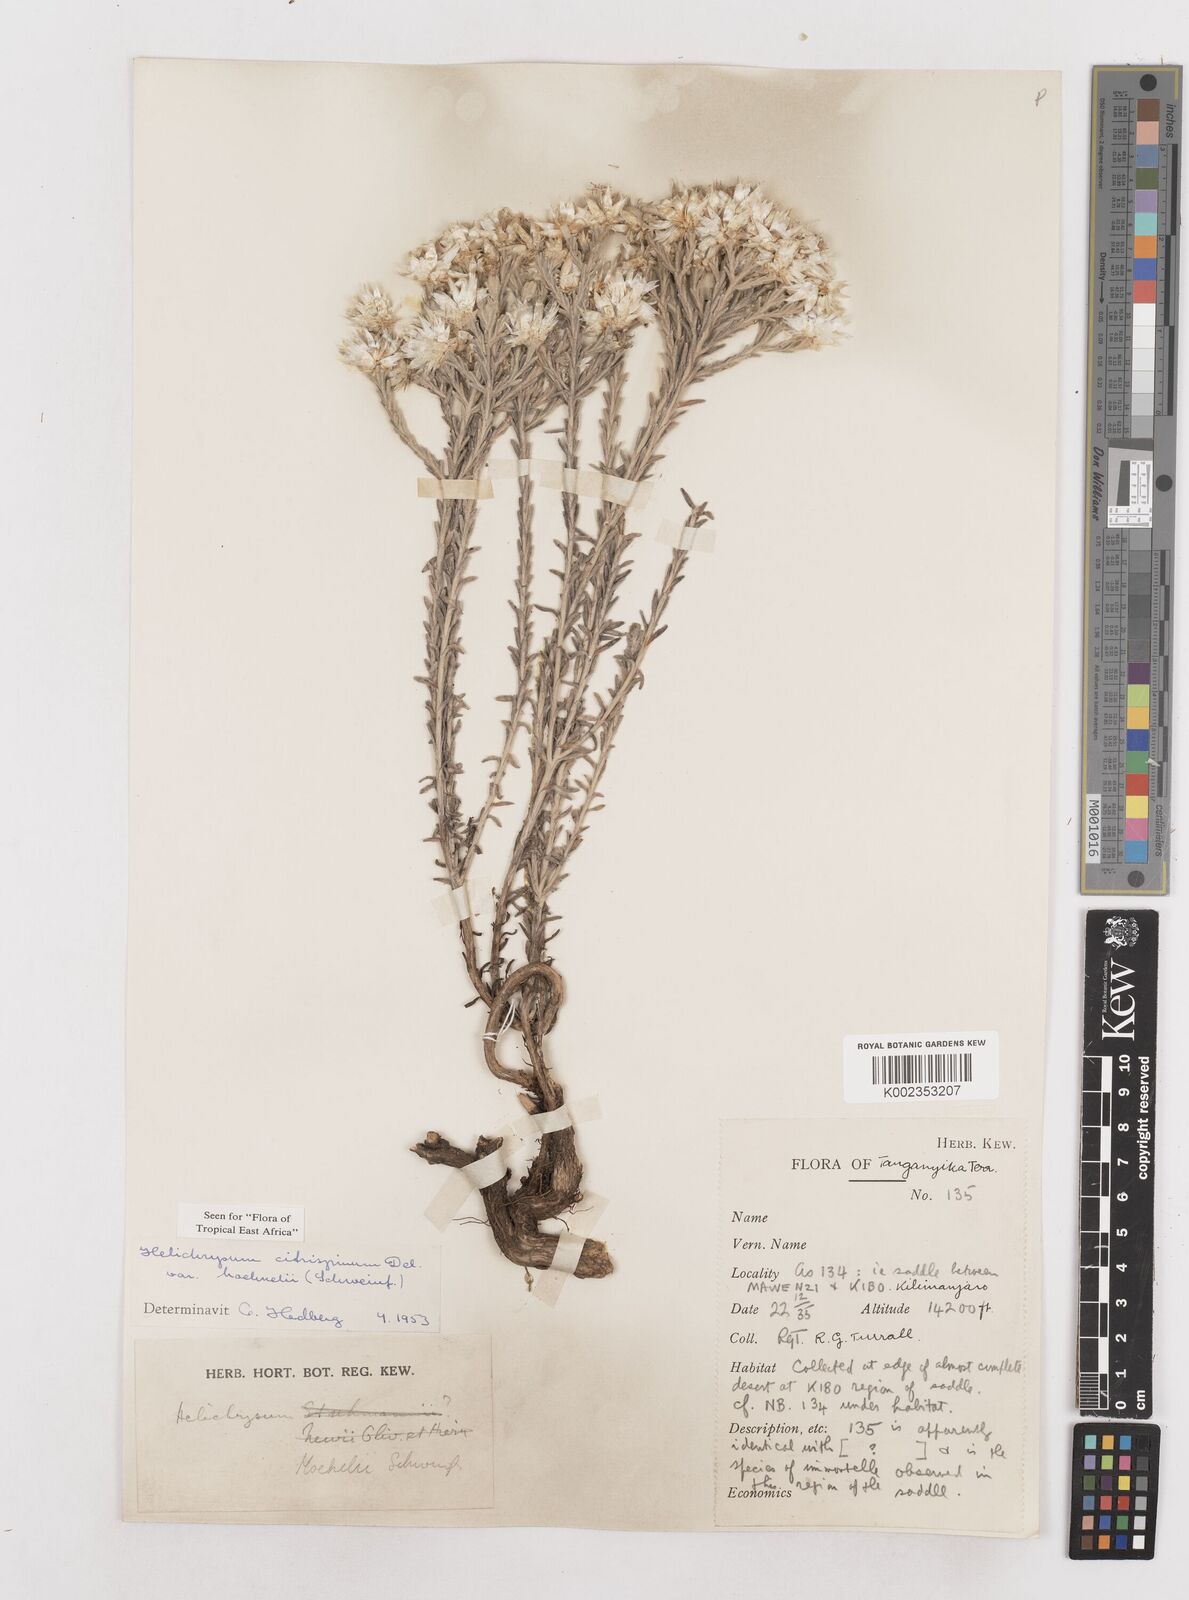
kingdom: Plantae
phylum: Tracheophyta
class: Magnoliopsida
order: Asterales
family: Asteraceae
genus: Helichrysum
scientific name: Helichrysum citrispinum
